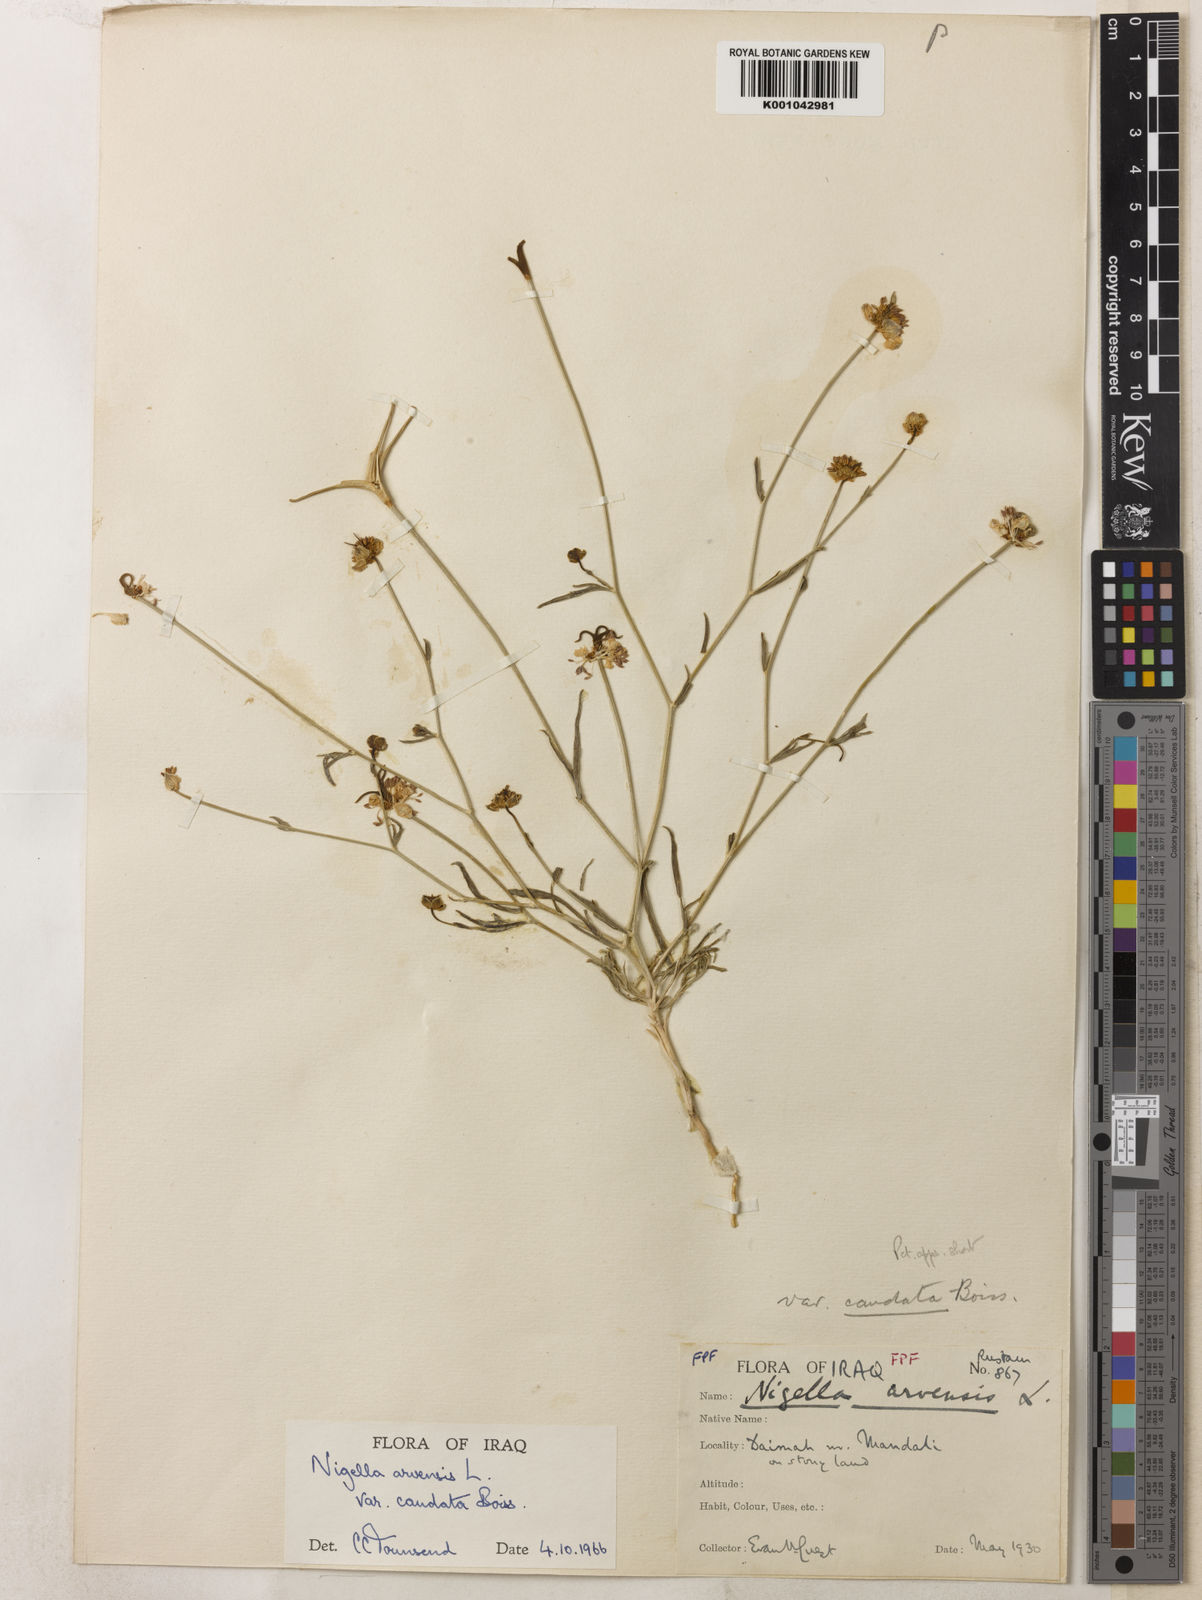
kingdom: Plantae
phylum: Tracheophyta
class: Magnoliopsida
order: Ranunculales
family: Ranunculaceae
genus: Nigella
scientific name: Nigella arvensis
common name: Wild fennel-flower
